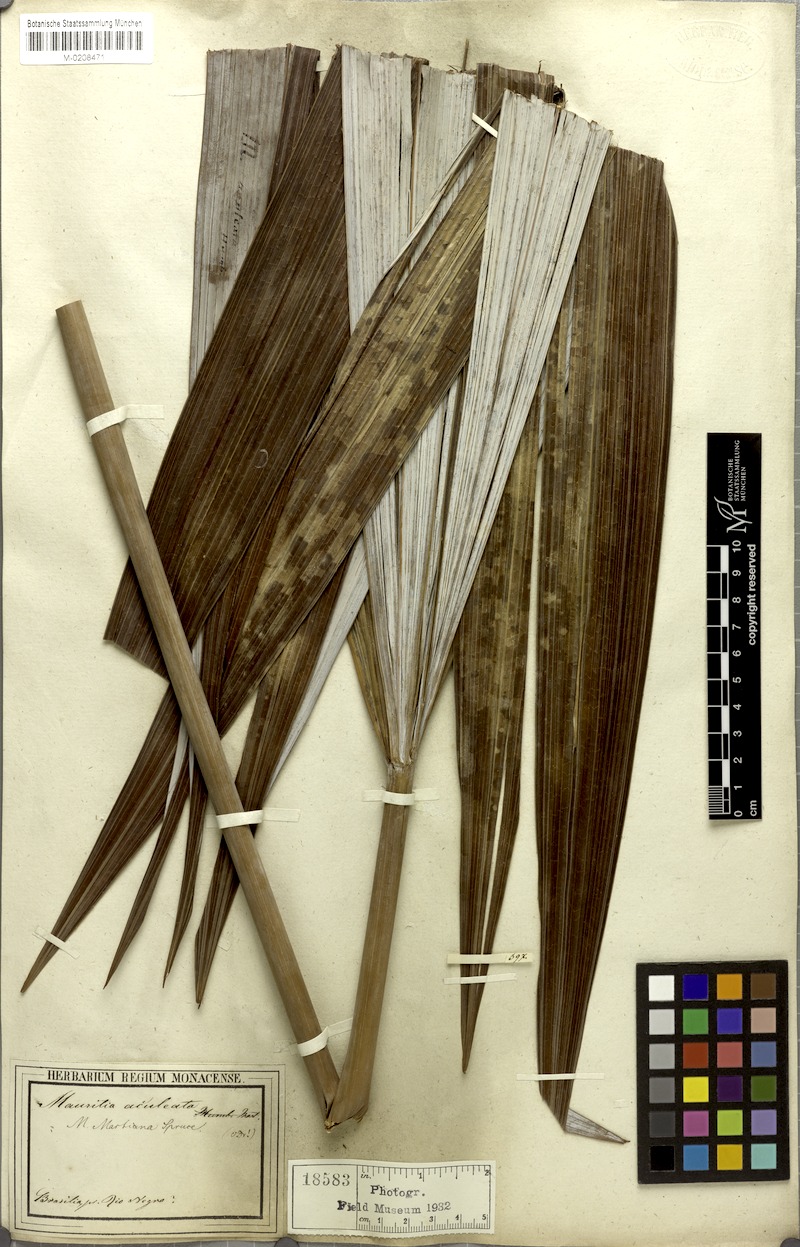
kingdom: Plantae
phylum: Tracheophyta
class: Liliopsida
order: Arecales
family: Arecaceae
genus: Mauritiella
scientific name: Mauritiella armata
